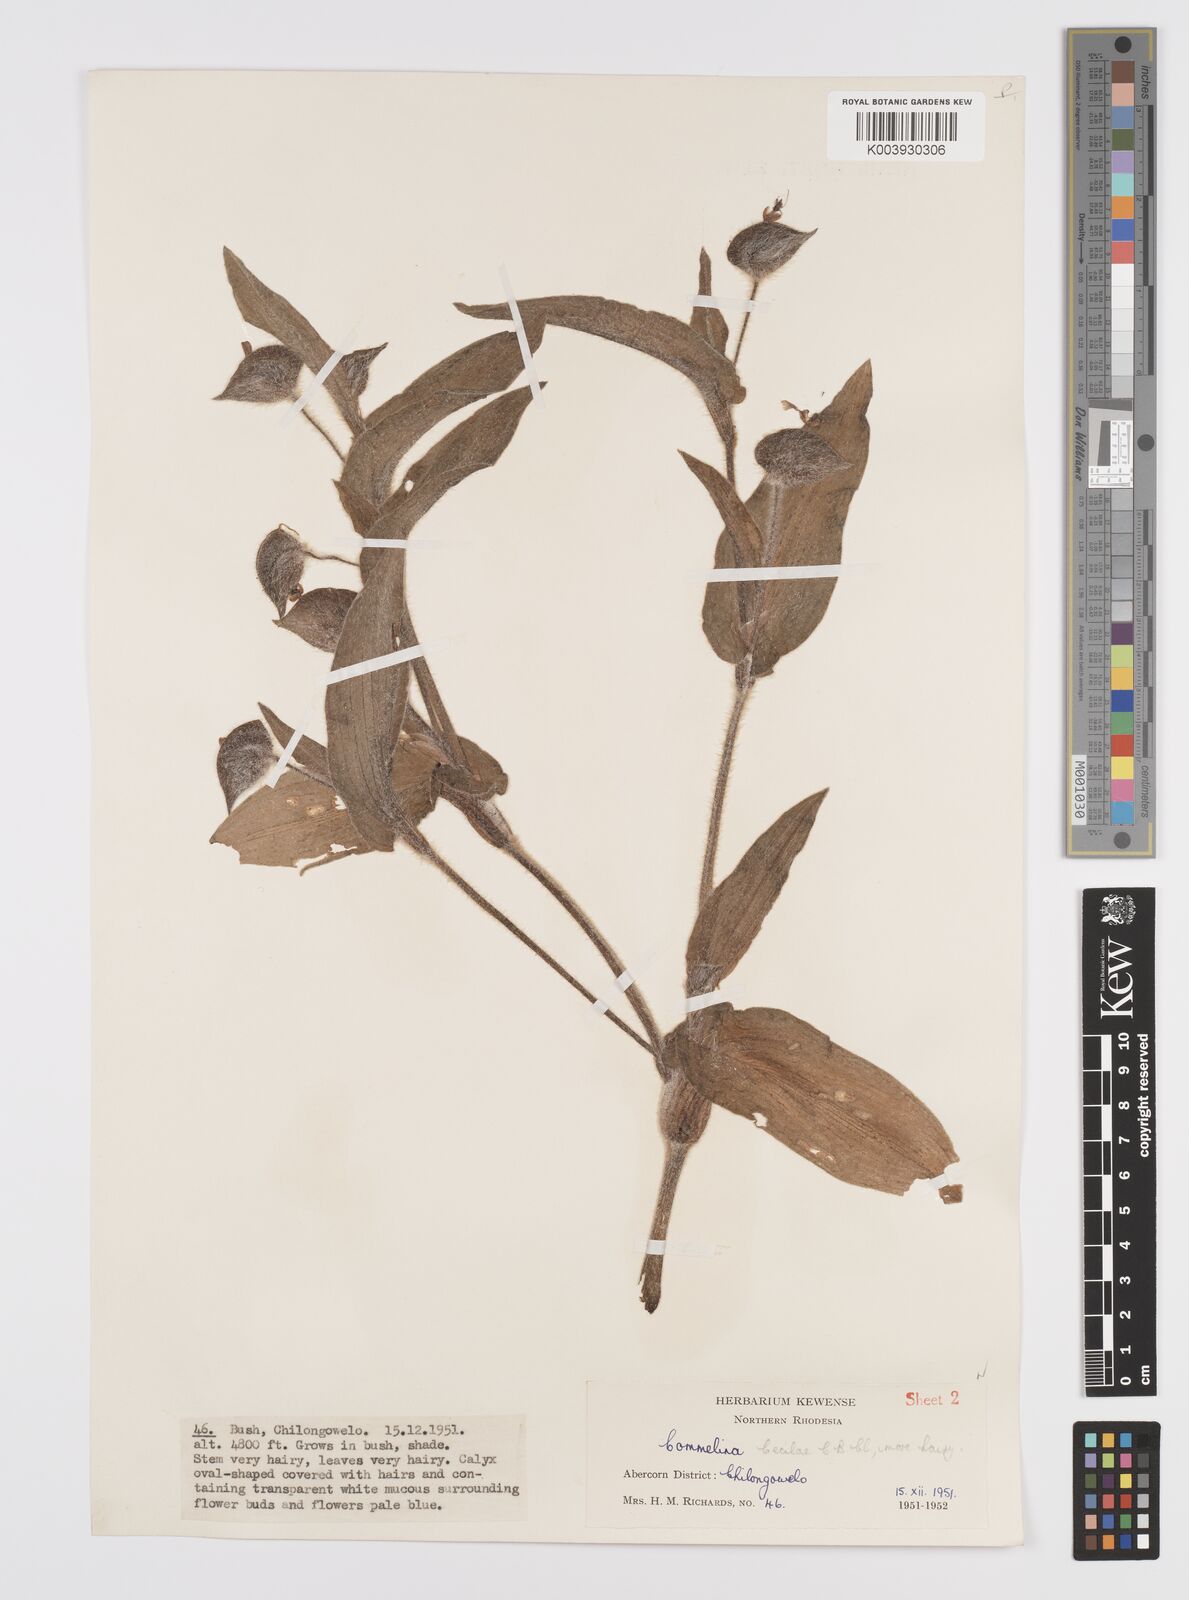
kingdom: Plantae
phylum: Tracheophyta
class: Liliopsida
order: Commelinales
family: Commelinaceae
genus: Commelina
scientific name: Commelina cecilae
